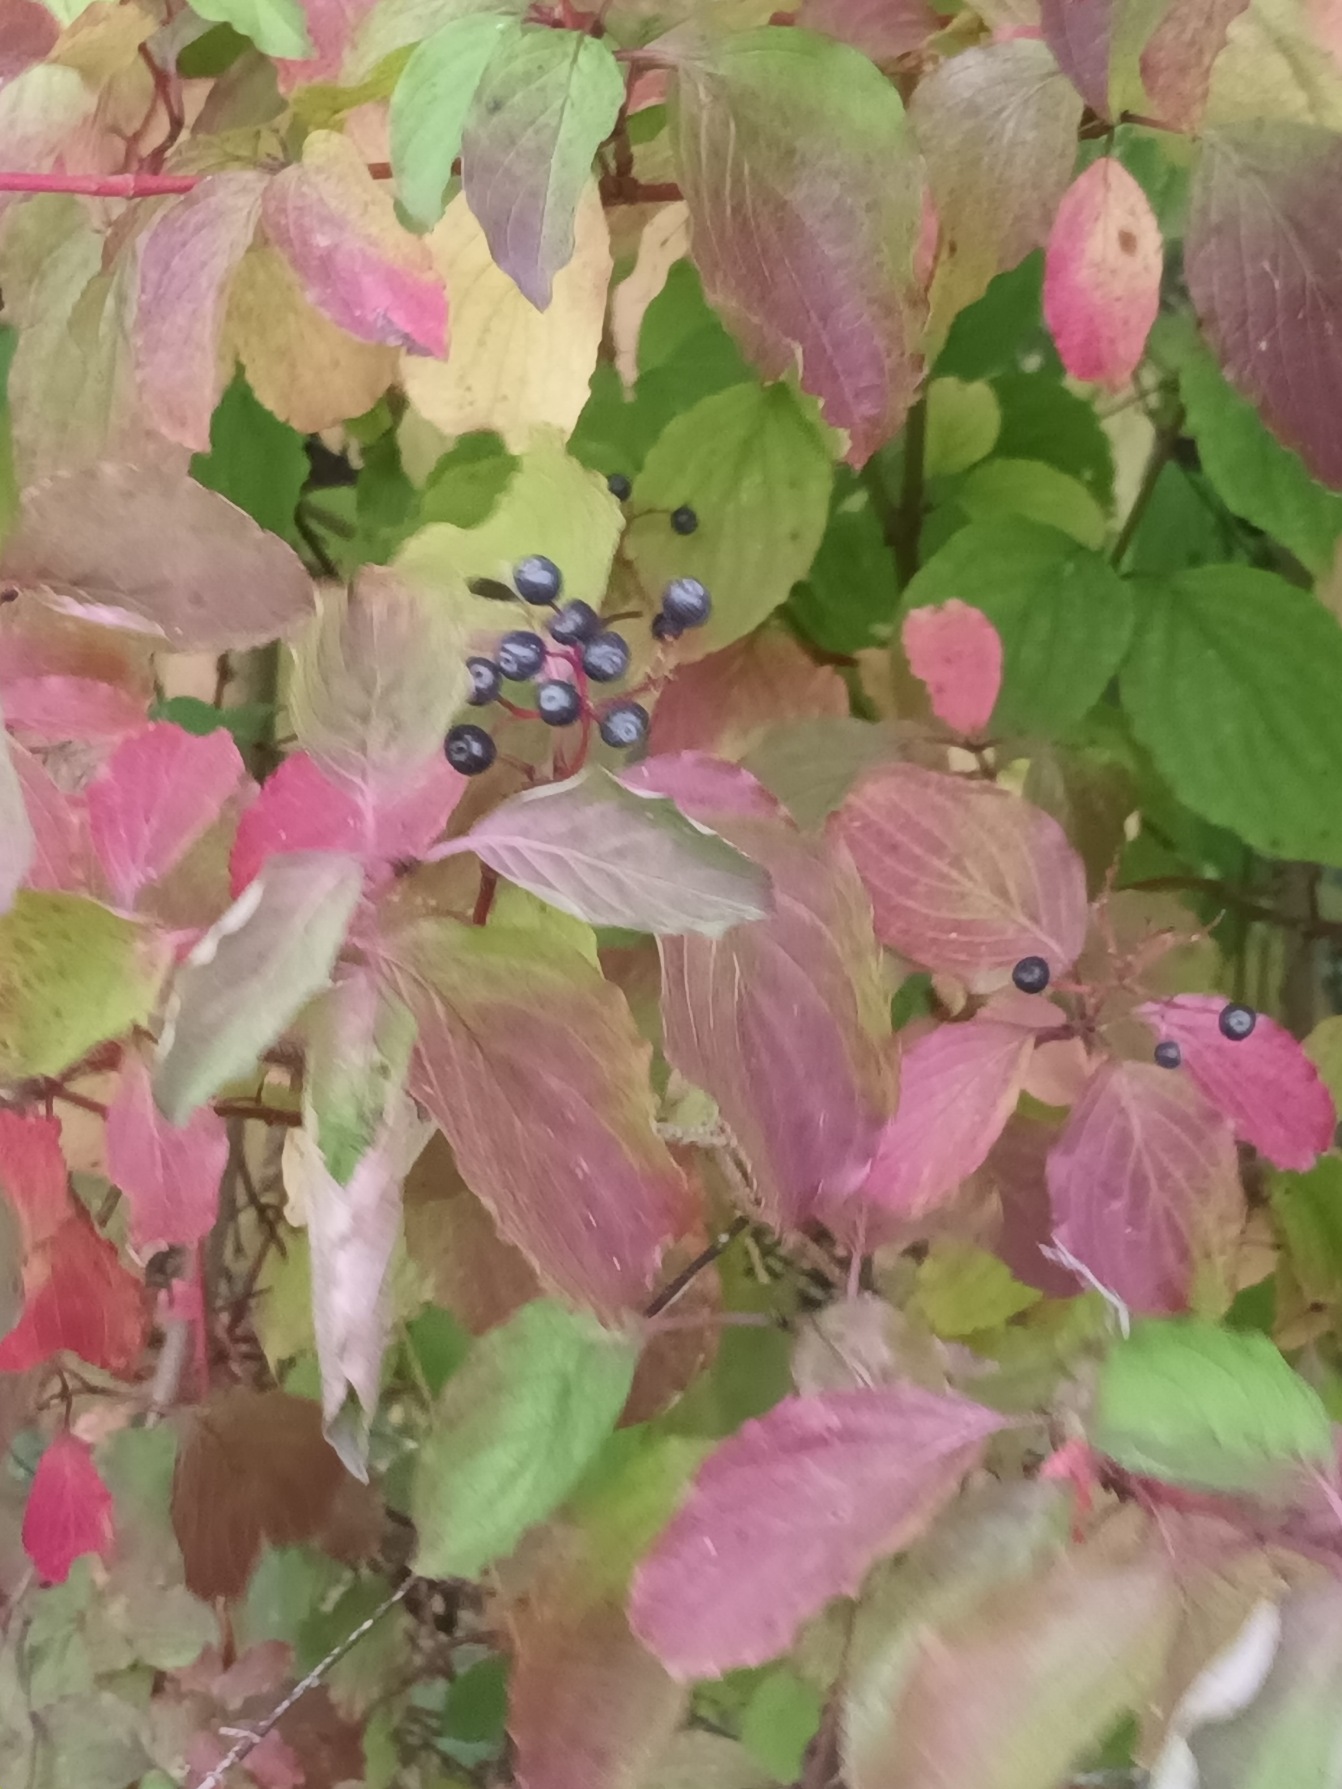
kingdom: Plantae
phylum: Tracheophyta
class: Magnoliopsida
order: Cornales
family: Cornaceae
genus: Cornus
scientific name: Cornus sanguinea
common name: Rød kornel
